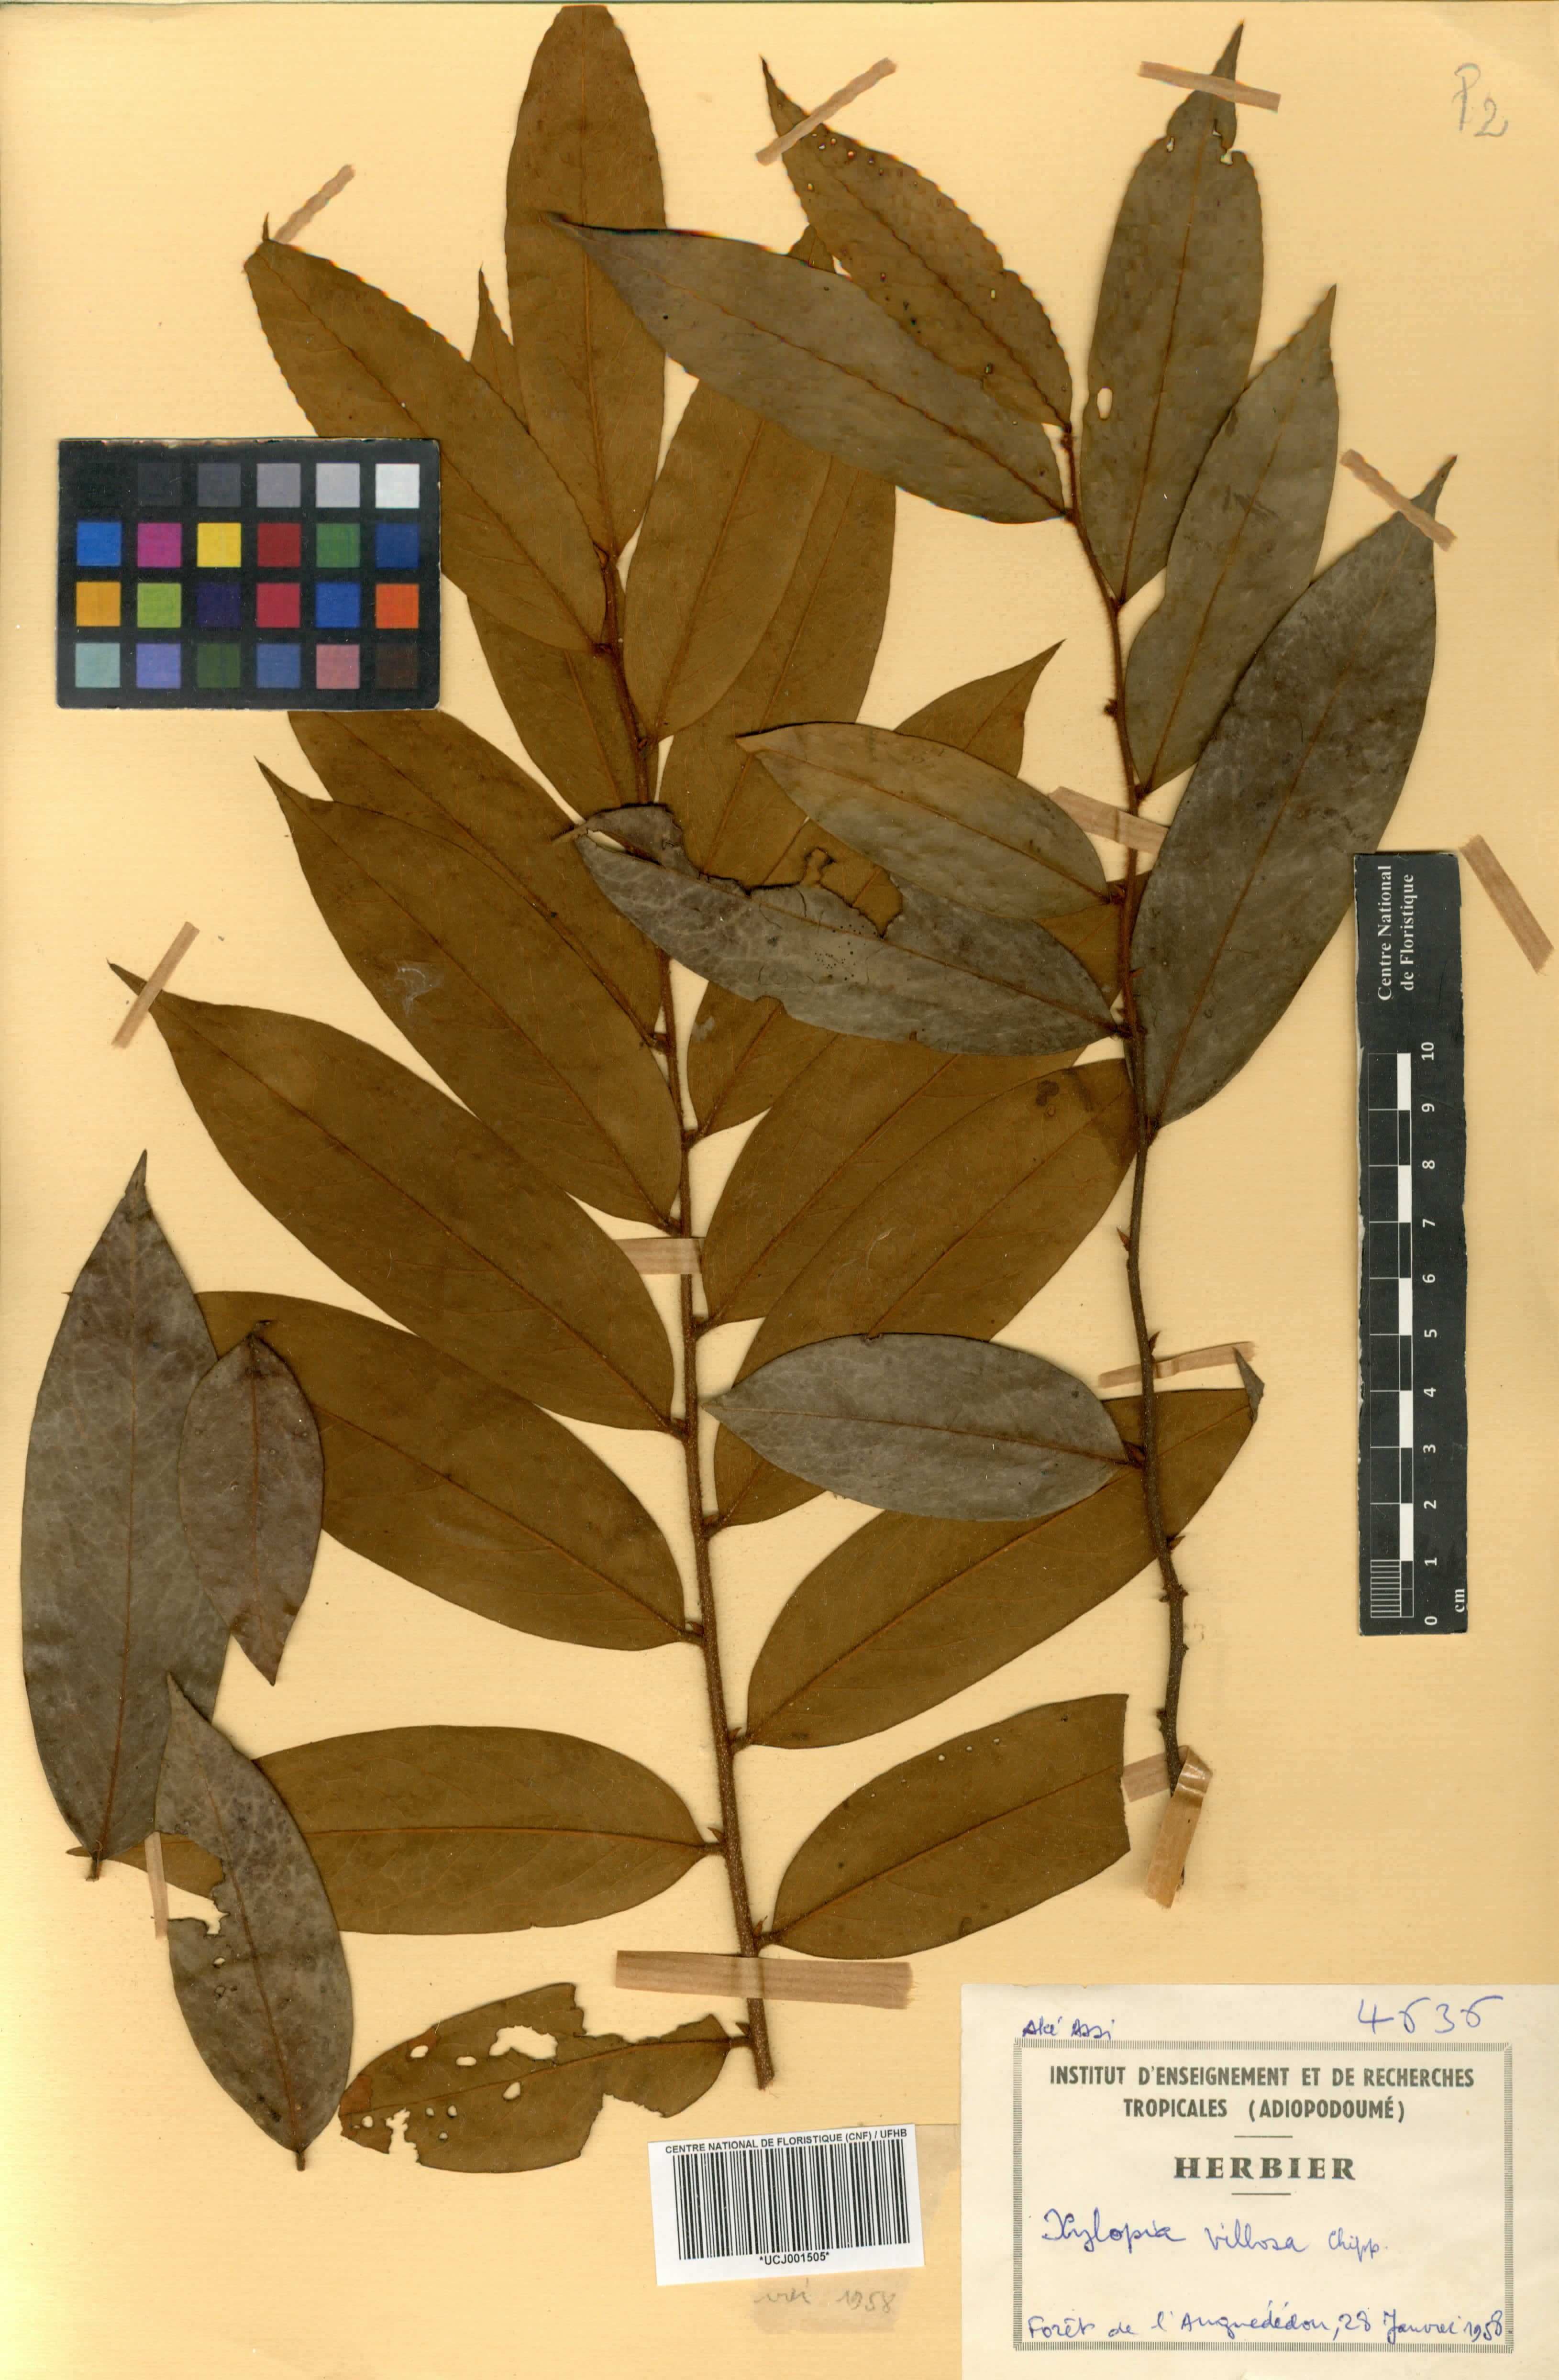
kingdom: Plantae
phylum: Tracheophyta
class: Magnoliopsida
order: Magnoliales
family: Annonaceae
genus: Xylopia
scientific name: Xylopia villosa
